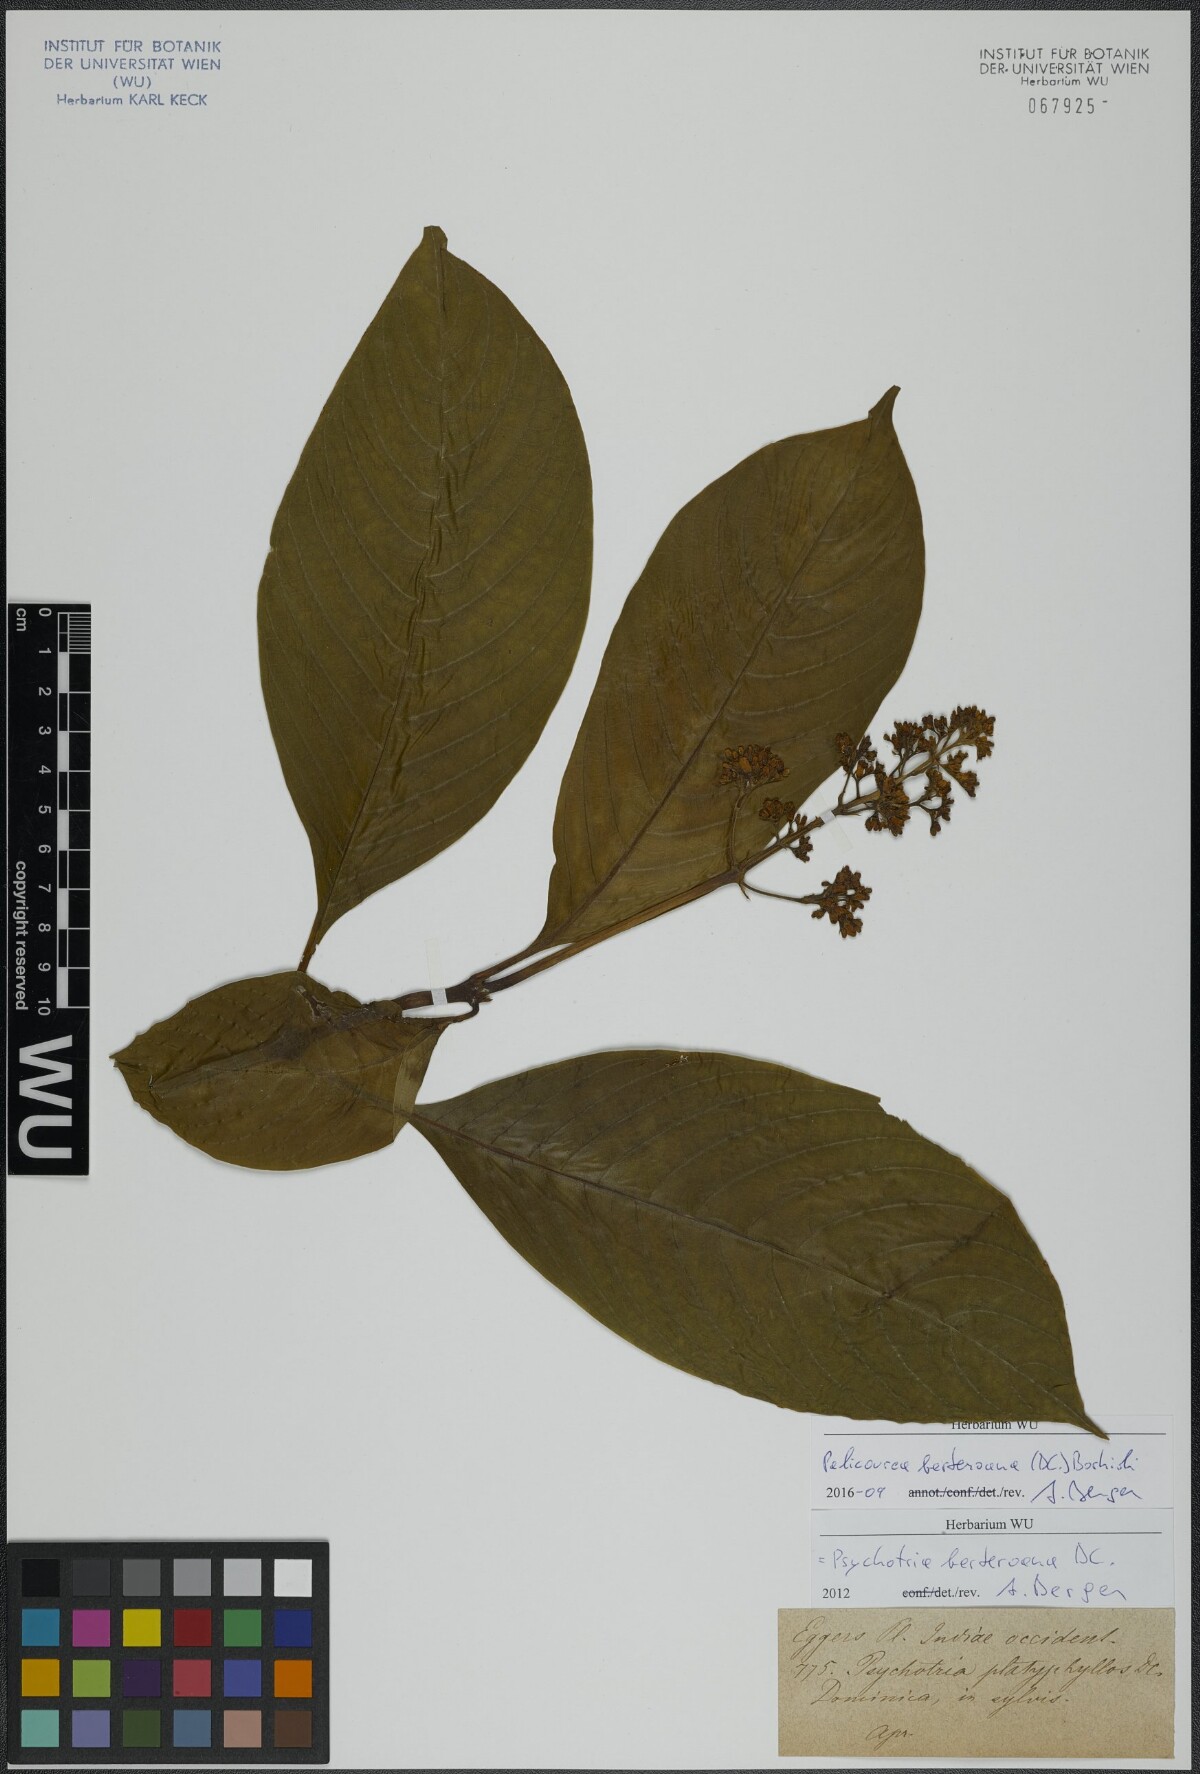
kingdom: Plantae
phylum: Tracheophyta
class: Magnoliopsida
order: Gentianales
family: Rubiaceae
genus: Palicourea
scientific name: Palicourea berteroana
